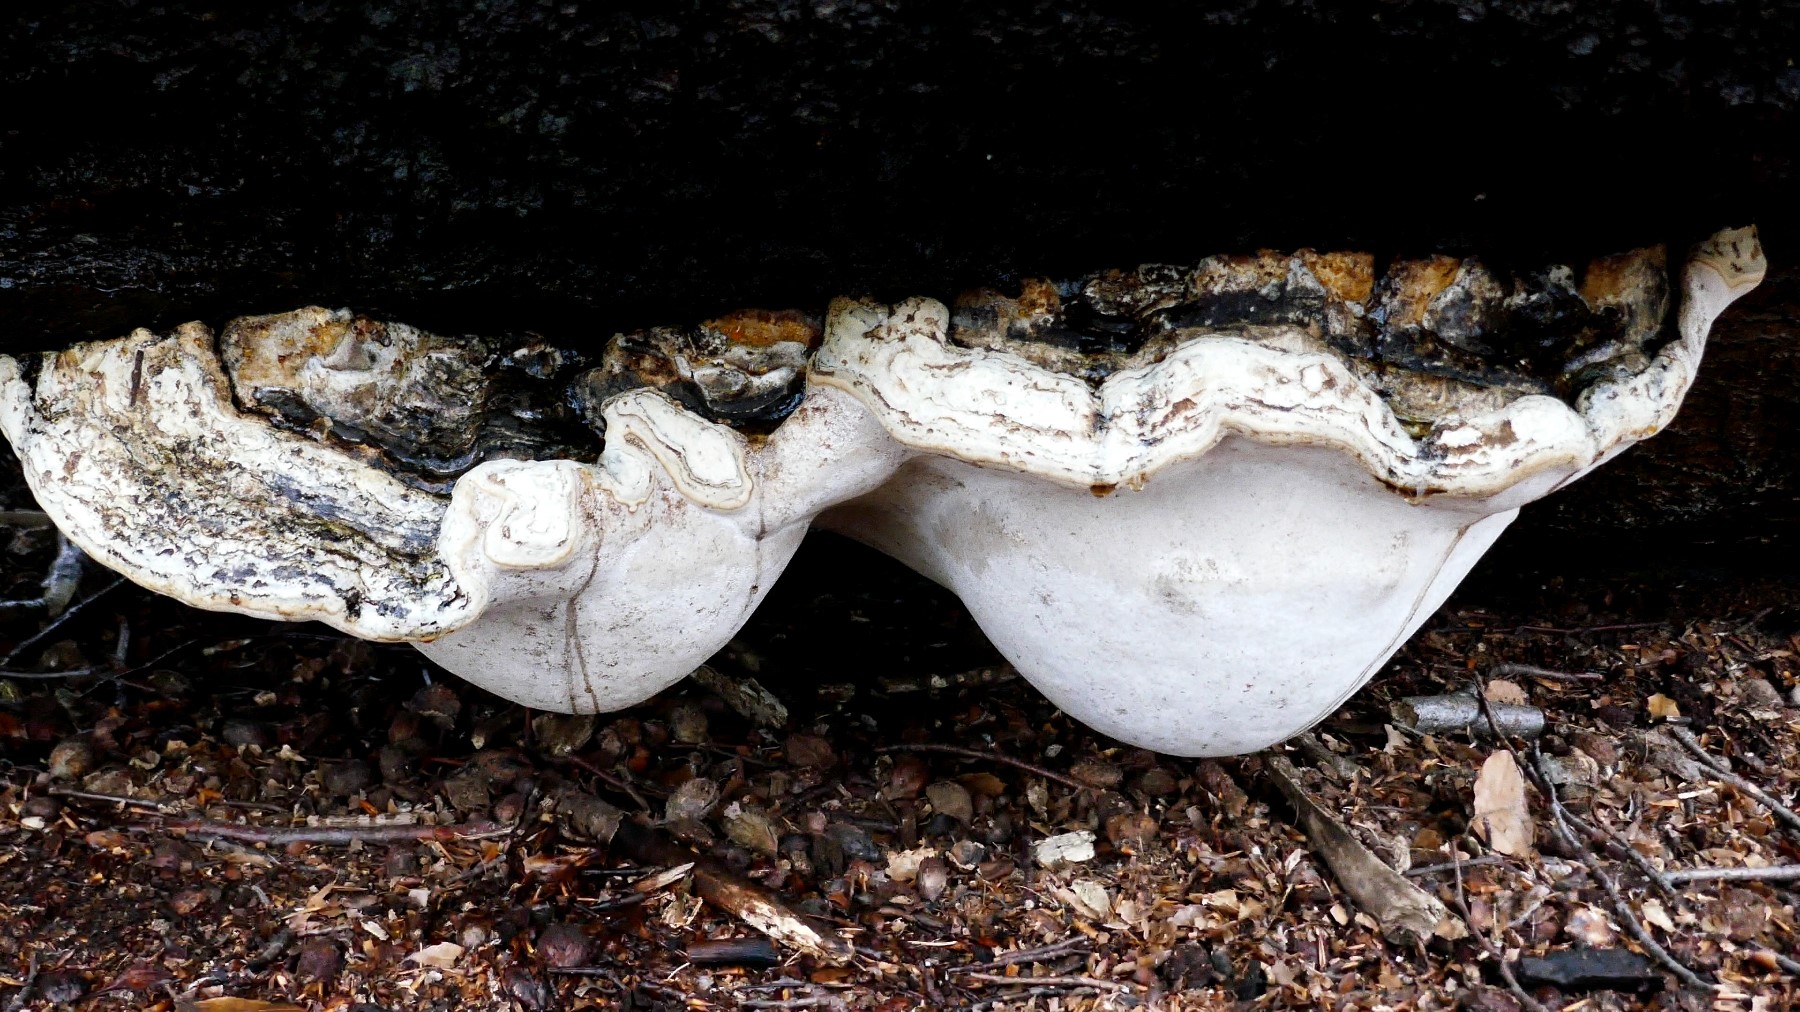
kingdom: Fungi
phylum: Basidiomycota
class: Agaricomycetes
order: Polyporales
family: Polyporaceae
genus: Fomes
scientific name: Fomes fomentarius
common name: tøndersvamp
